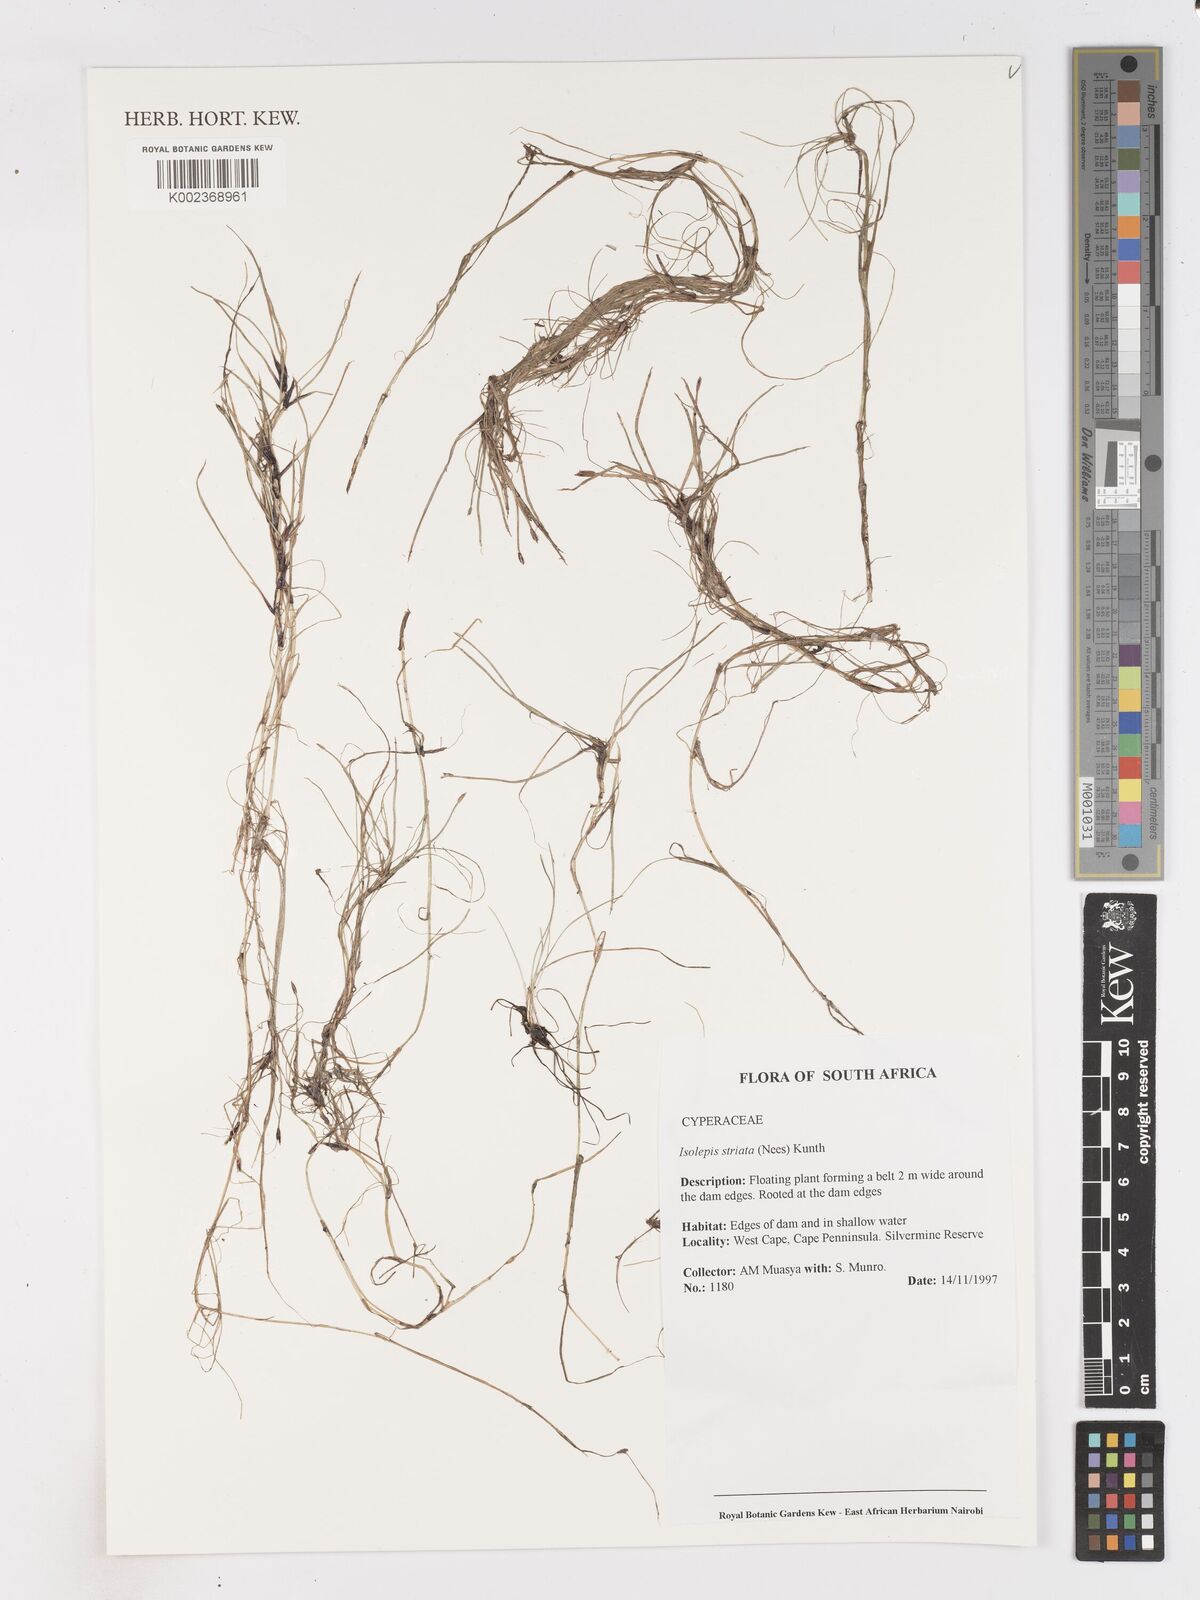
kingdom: Plantae
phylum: Tracheophyta
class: Liliopsida
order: Poales
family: Cyperaceae
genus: Isolepis
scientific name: Isolepis striata
